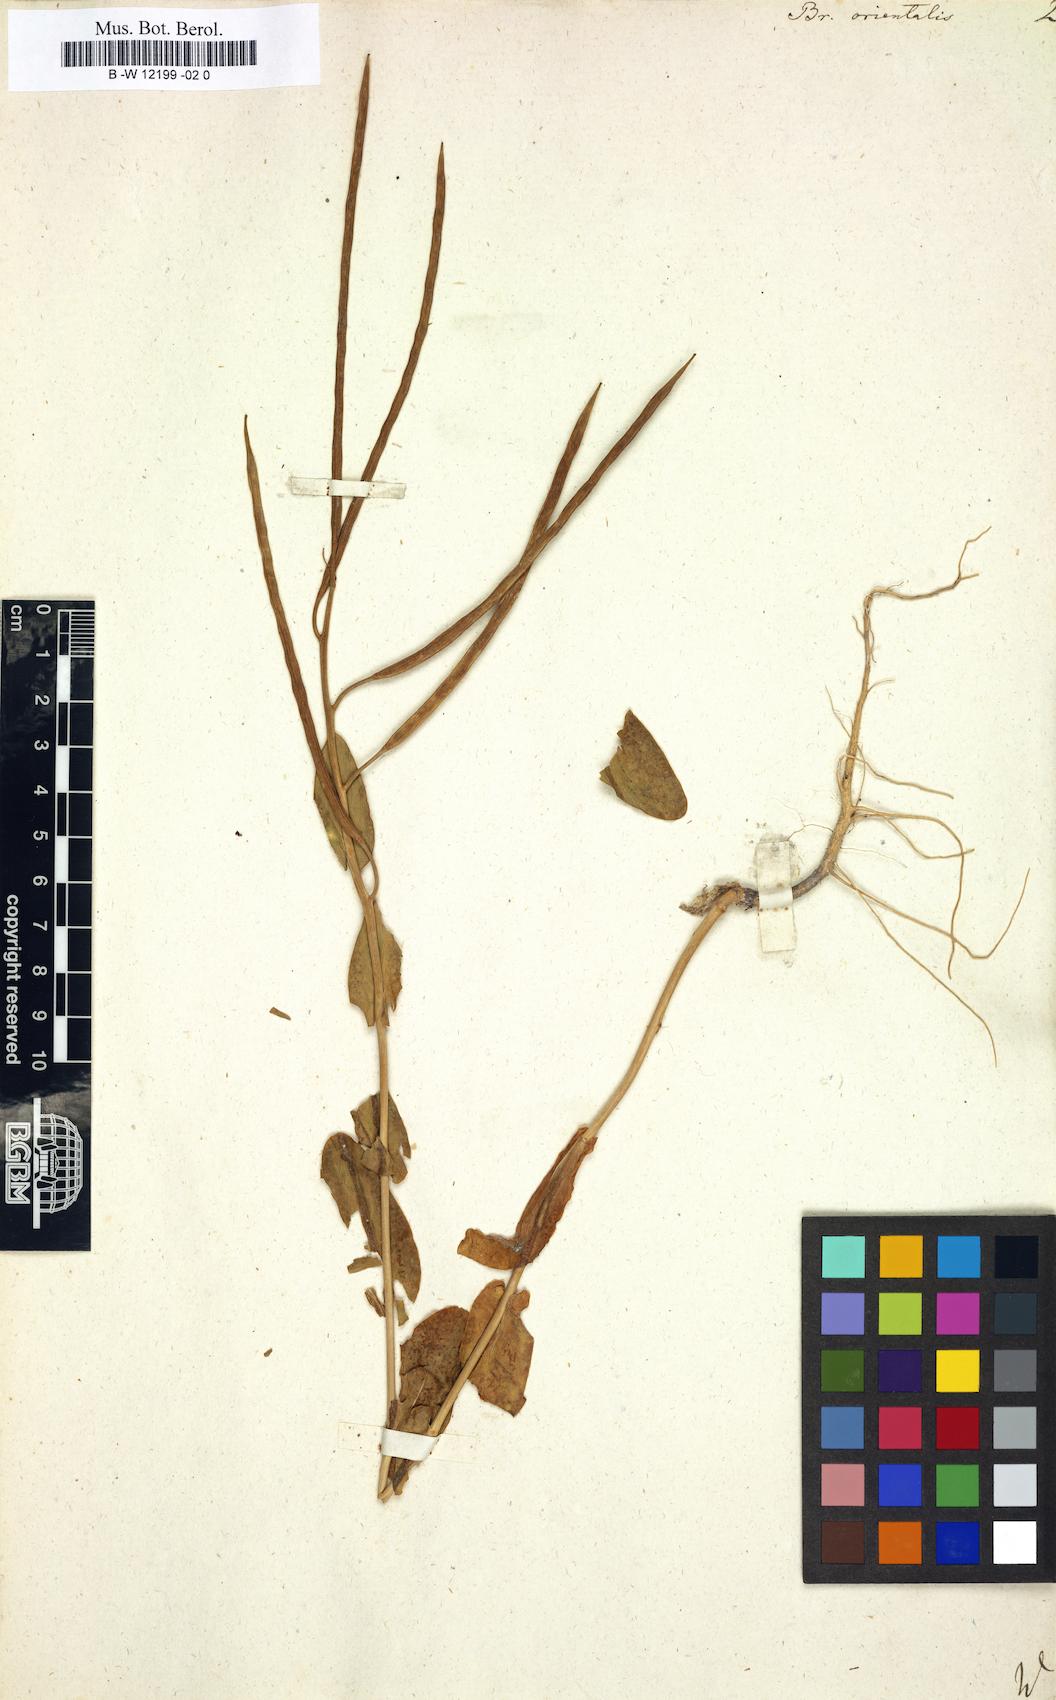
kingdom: Plantae
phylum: Tracheophyta
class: Magnoliopsida
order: Brassicales
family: Brassicaceae
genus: Conringia
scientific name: Conringia orientalis
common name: Hare's ear mustard
